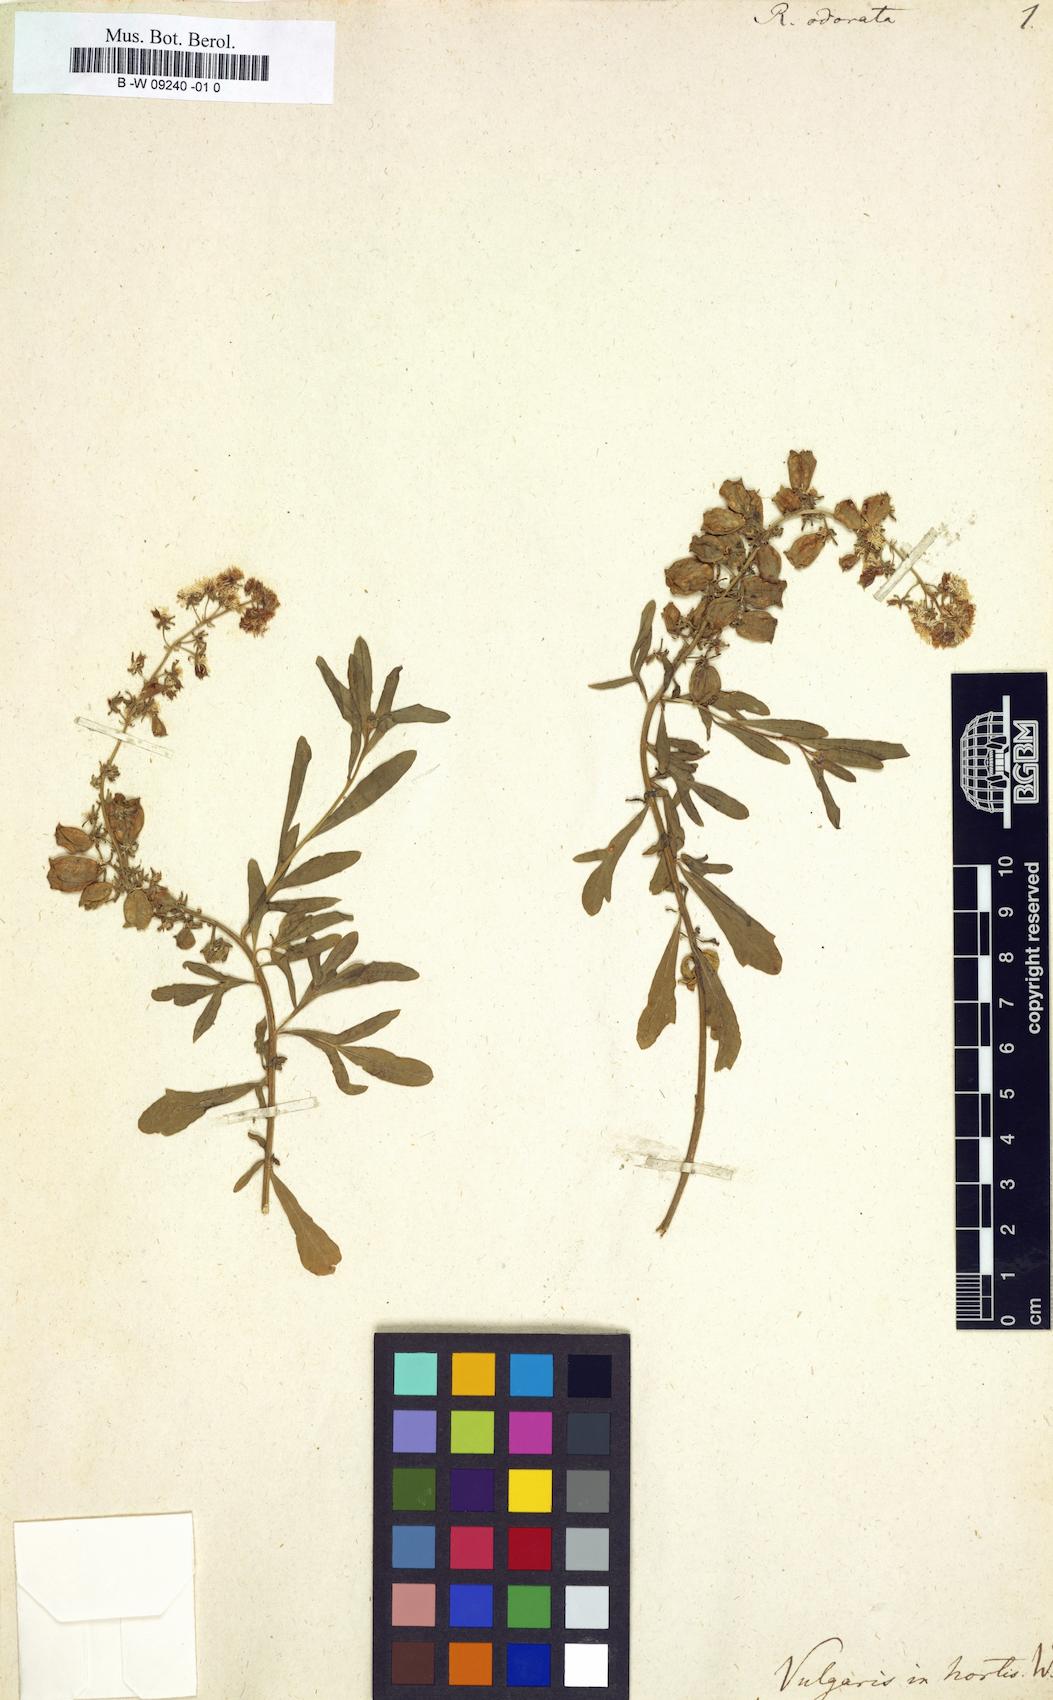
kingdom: Plantae
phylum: Tracheophyta
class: Magnoliopsida
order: Brassicales
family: Resedaceae
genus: Reseda
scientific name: Reseda odorata
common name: Garden mignonette
